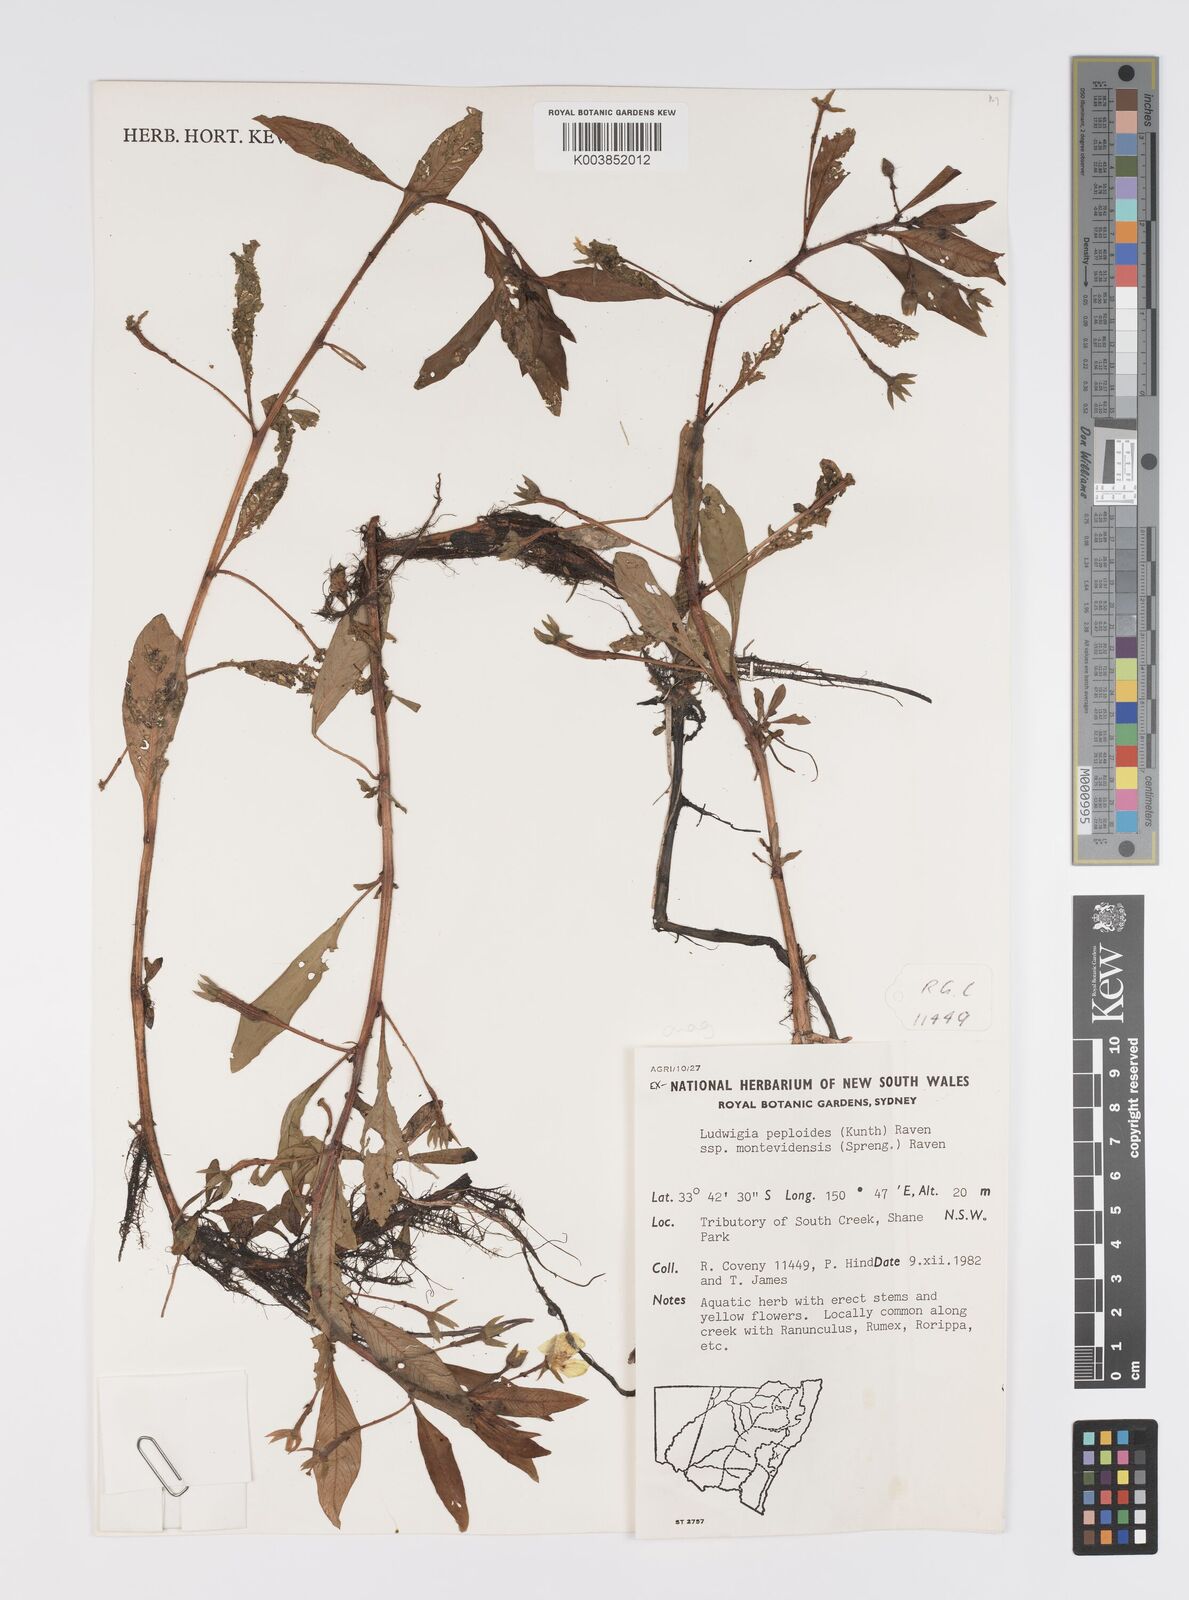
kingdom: Plantae
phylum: Tracheophyta
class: Magnoliopsida
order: Myrtales
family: Onagraceae
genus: Ludwigia
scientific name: Ludwigia peploides
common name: Floating primrose-willow
